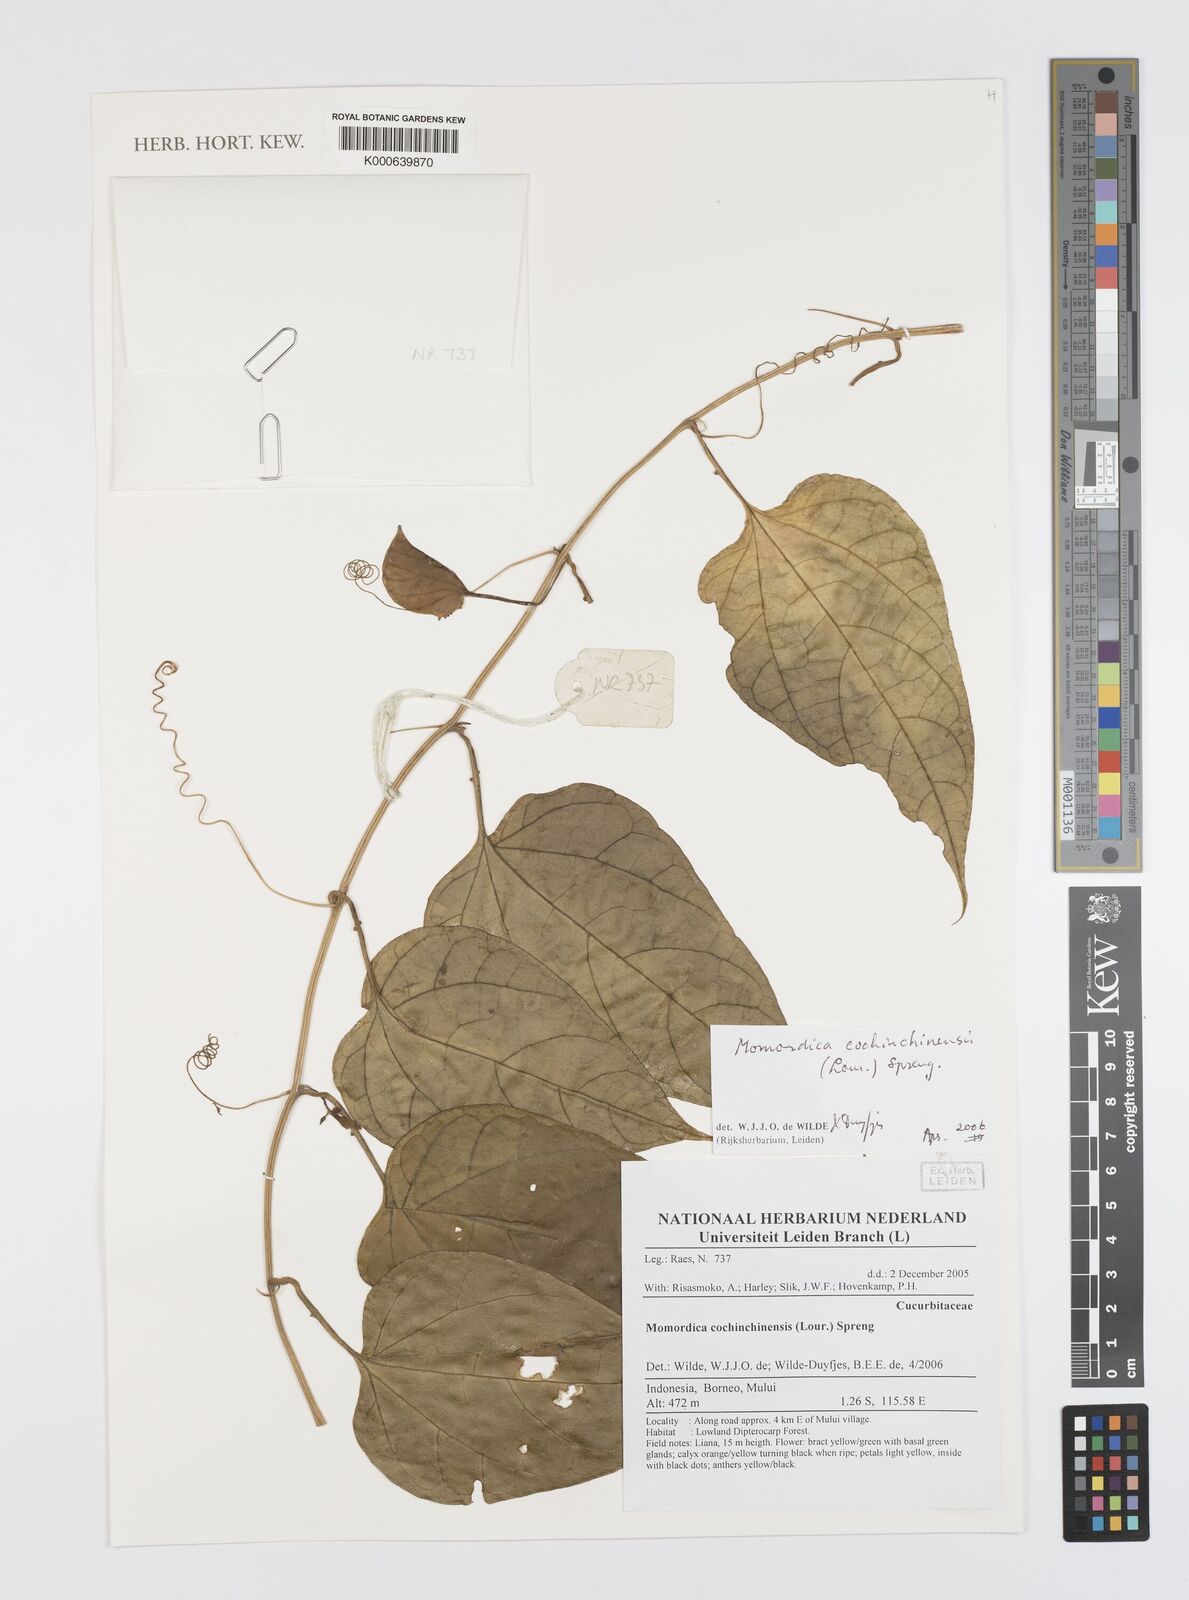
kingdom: Plantae
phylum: Tracheophyta
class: Magnoliopsida
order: Cucurbitales
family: Cucurbitaceae
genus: Momordica
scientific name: Momordica cochinchinensis
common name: Chinese bitter-cucumber
